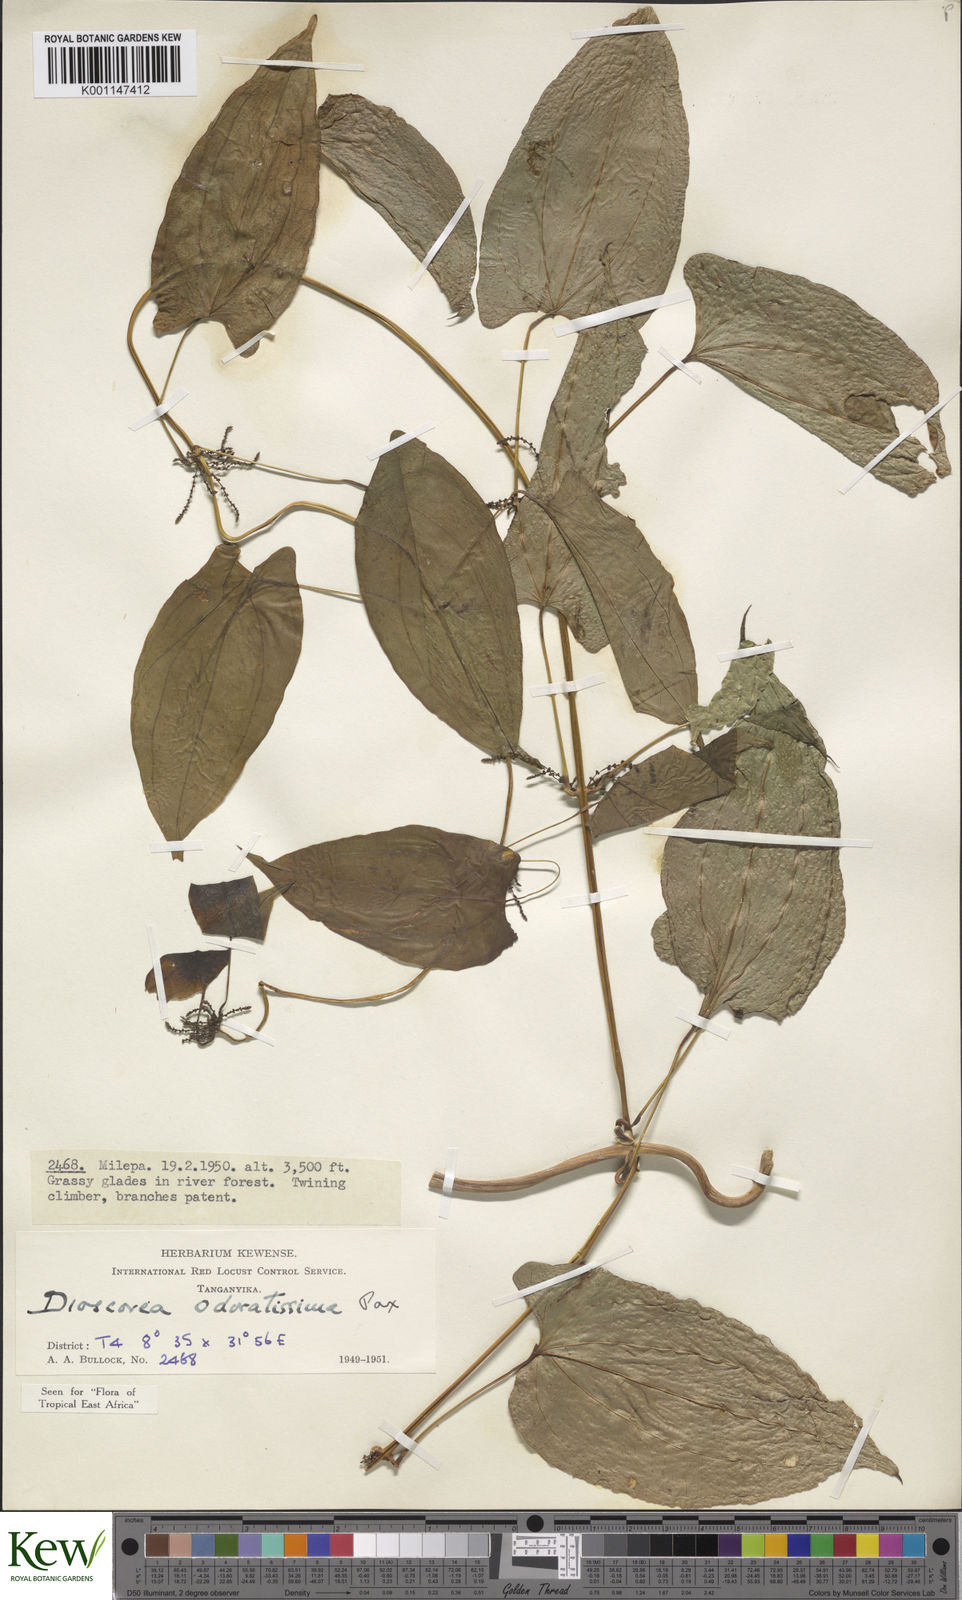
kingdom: Plantae
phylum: Tracheophyta
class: Liliopsida
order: Dioscoreales
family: Dioscoreaceae
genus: Dioscorea
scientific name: Dioscorea praehensilis
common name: Bush yam
